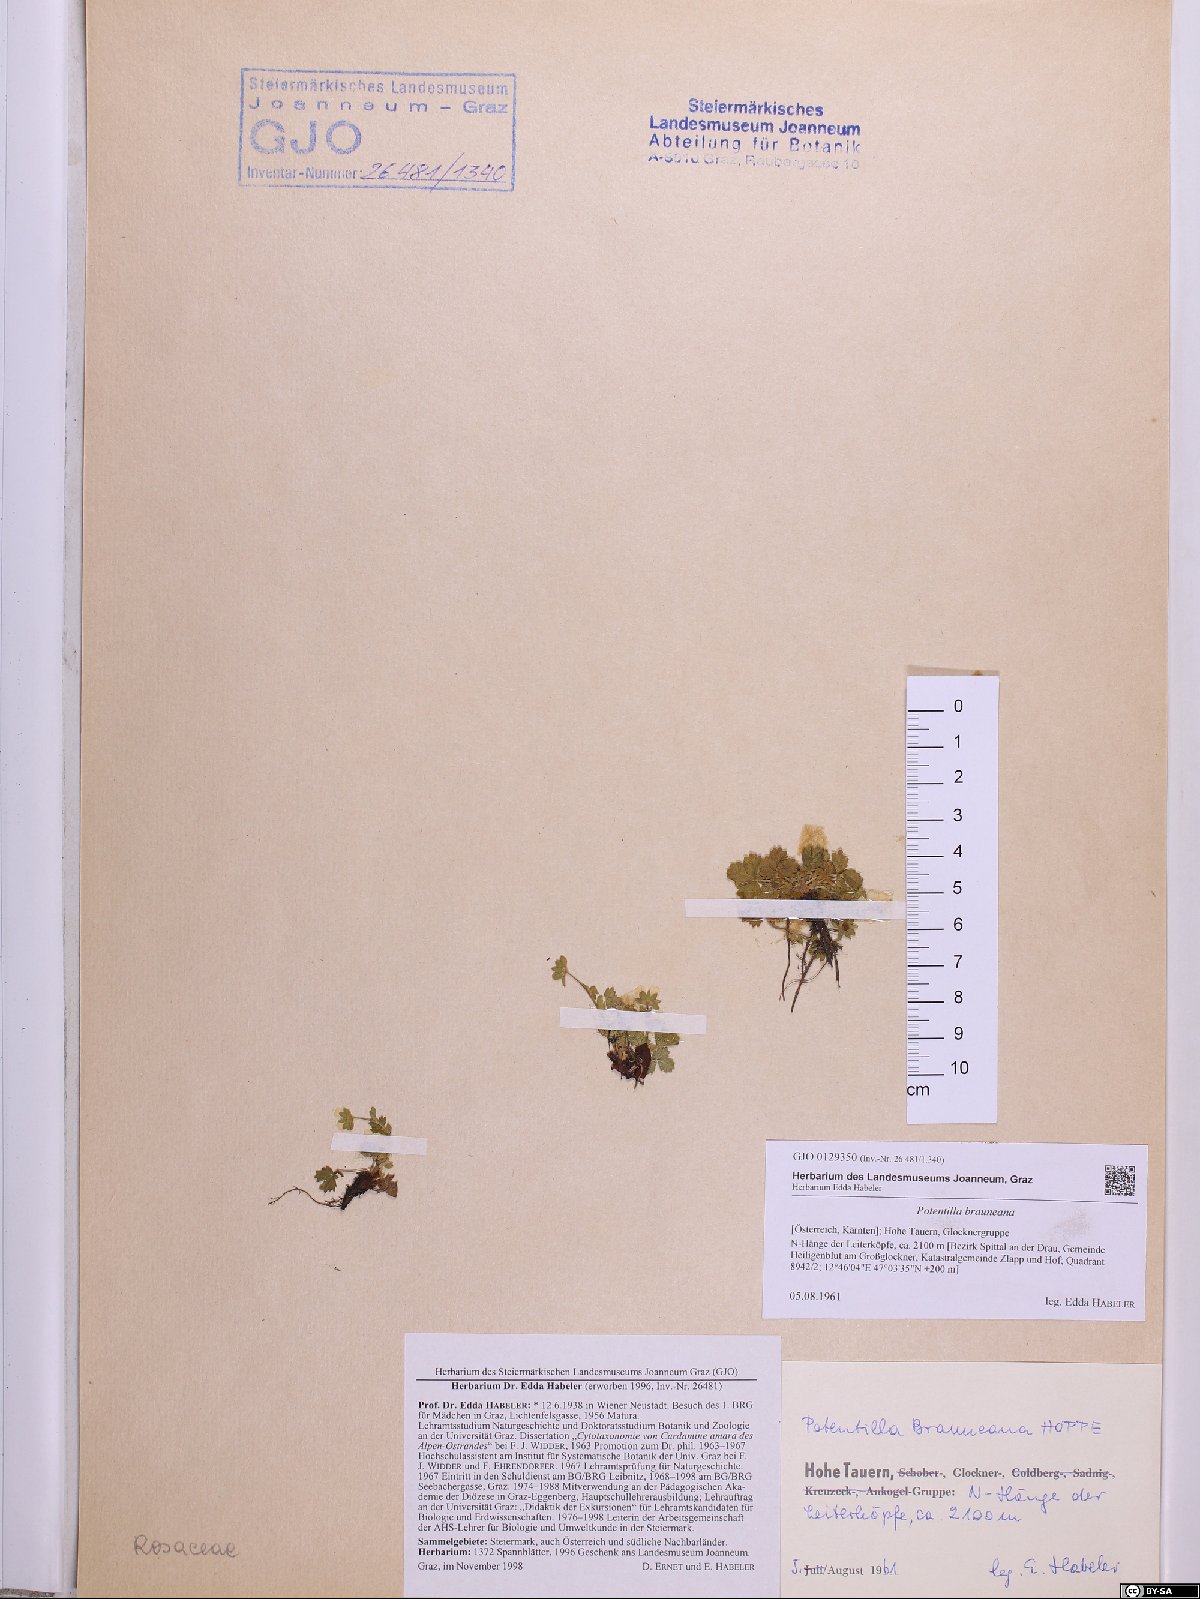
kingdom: Plantae
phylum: Tracheophyta
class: Magnoliopsida
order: Rosales
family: Rosaceae
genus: Potentilla
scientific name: Potentilla brauneana
